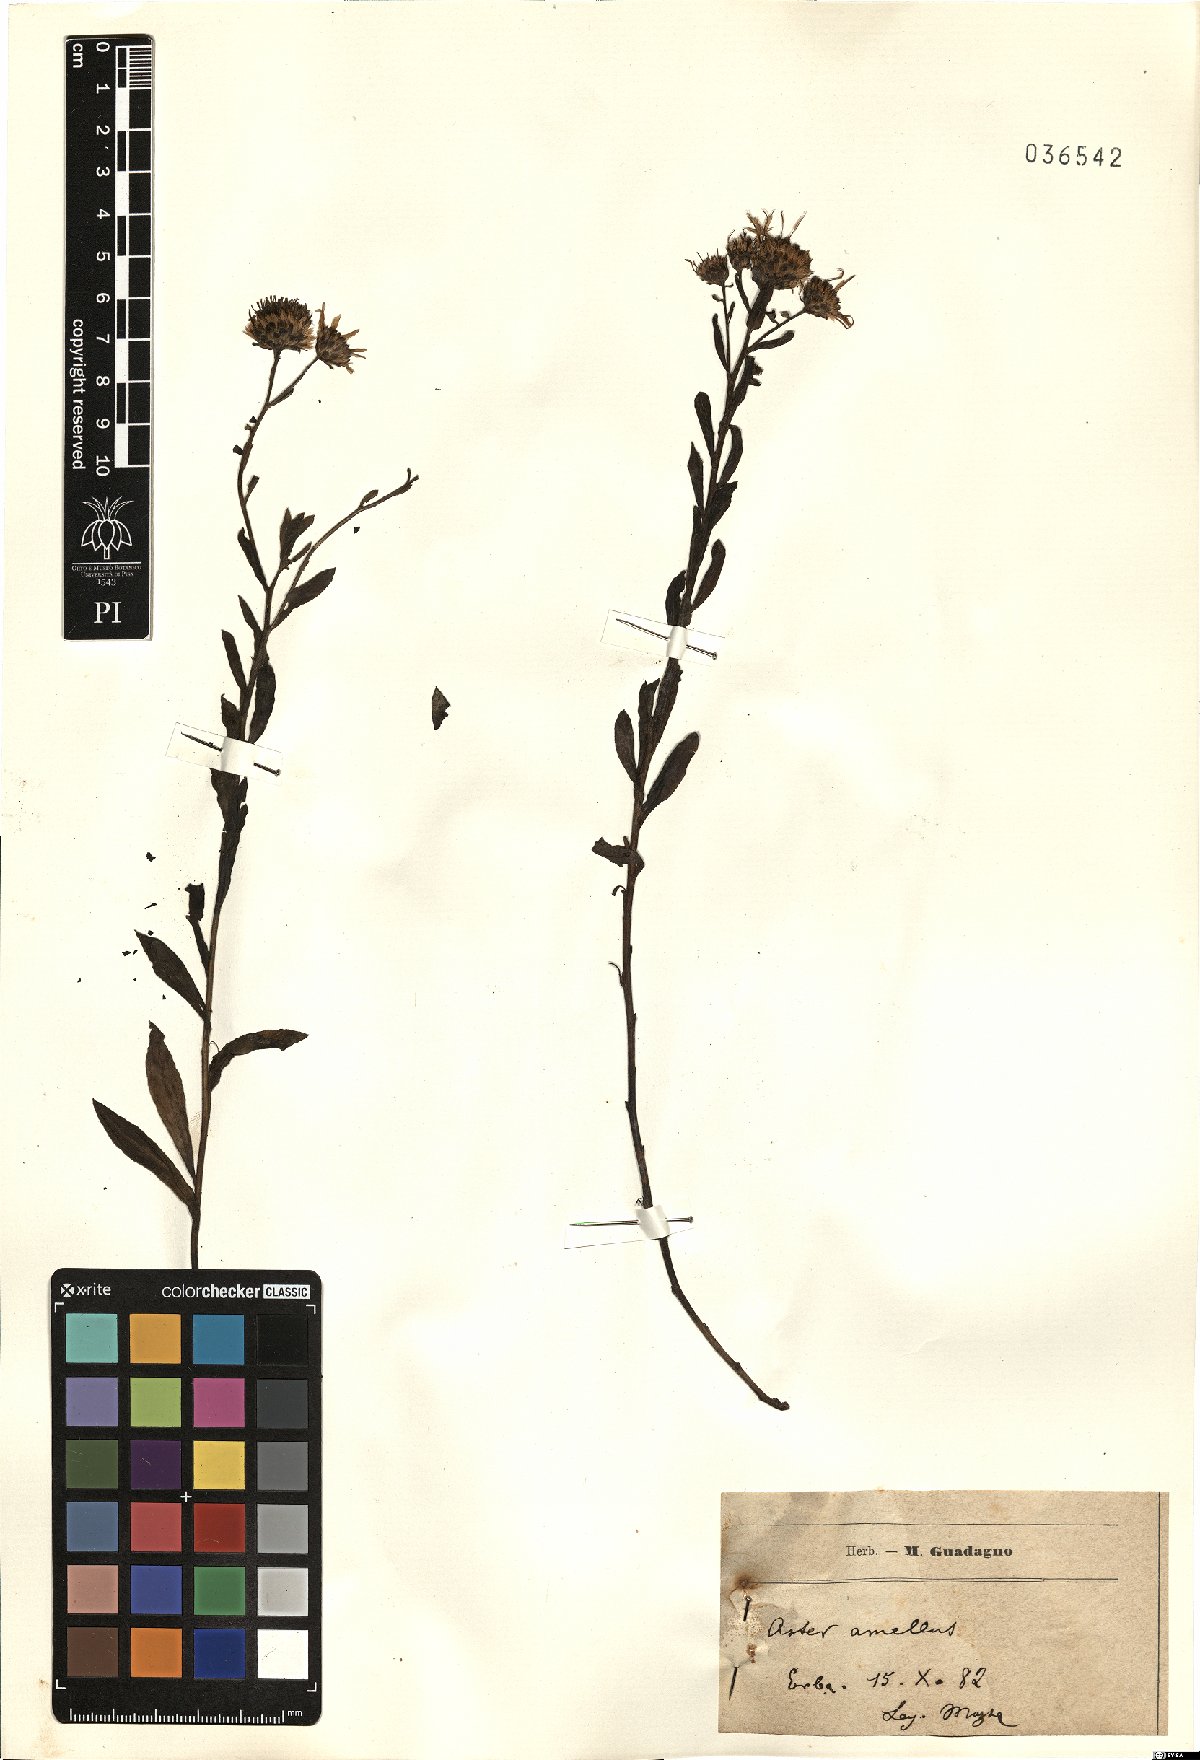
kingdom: Plantae
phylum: Tracheophyta
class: Magnoliopsida
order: Asterales
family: Asteraceae
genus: Aster
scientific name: Aster amellus
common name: European michaelmas daisy
